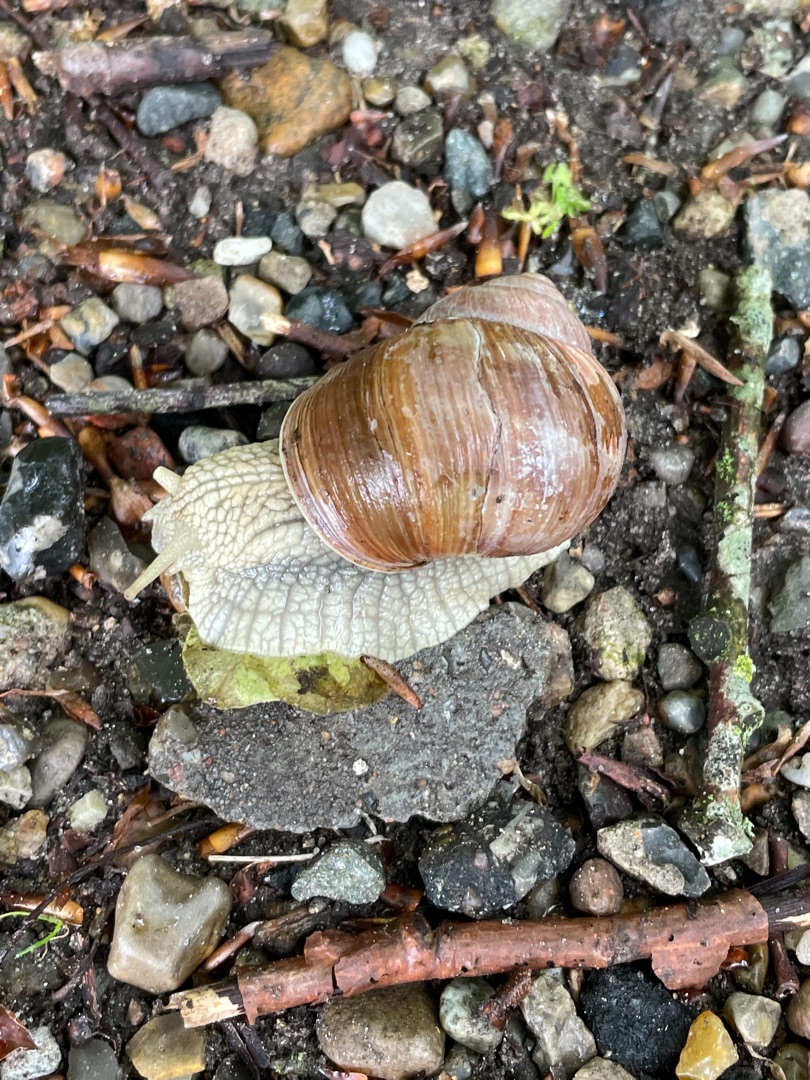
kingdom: Animalia
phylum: Mollusca
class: Gastropoda
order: Stylommatophora
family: Helicidae
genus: Helix
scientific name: Helix pomatia
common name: Vinbjergsnegl
